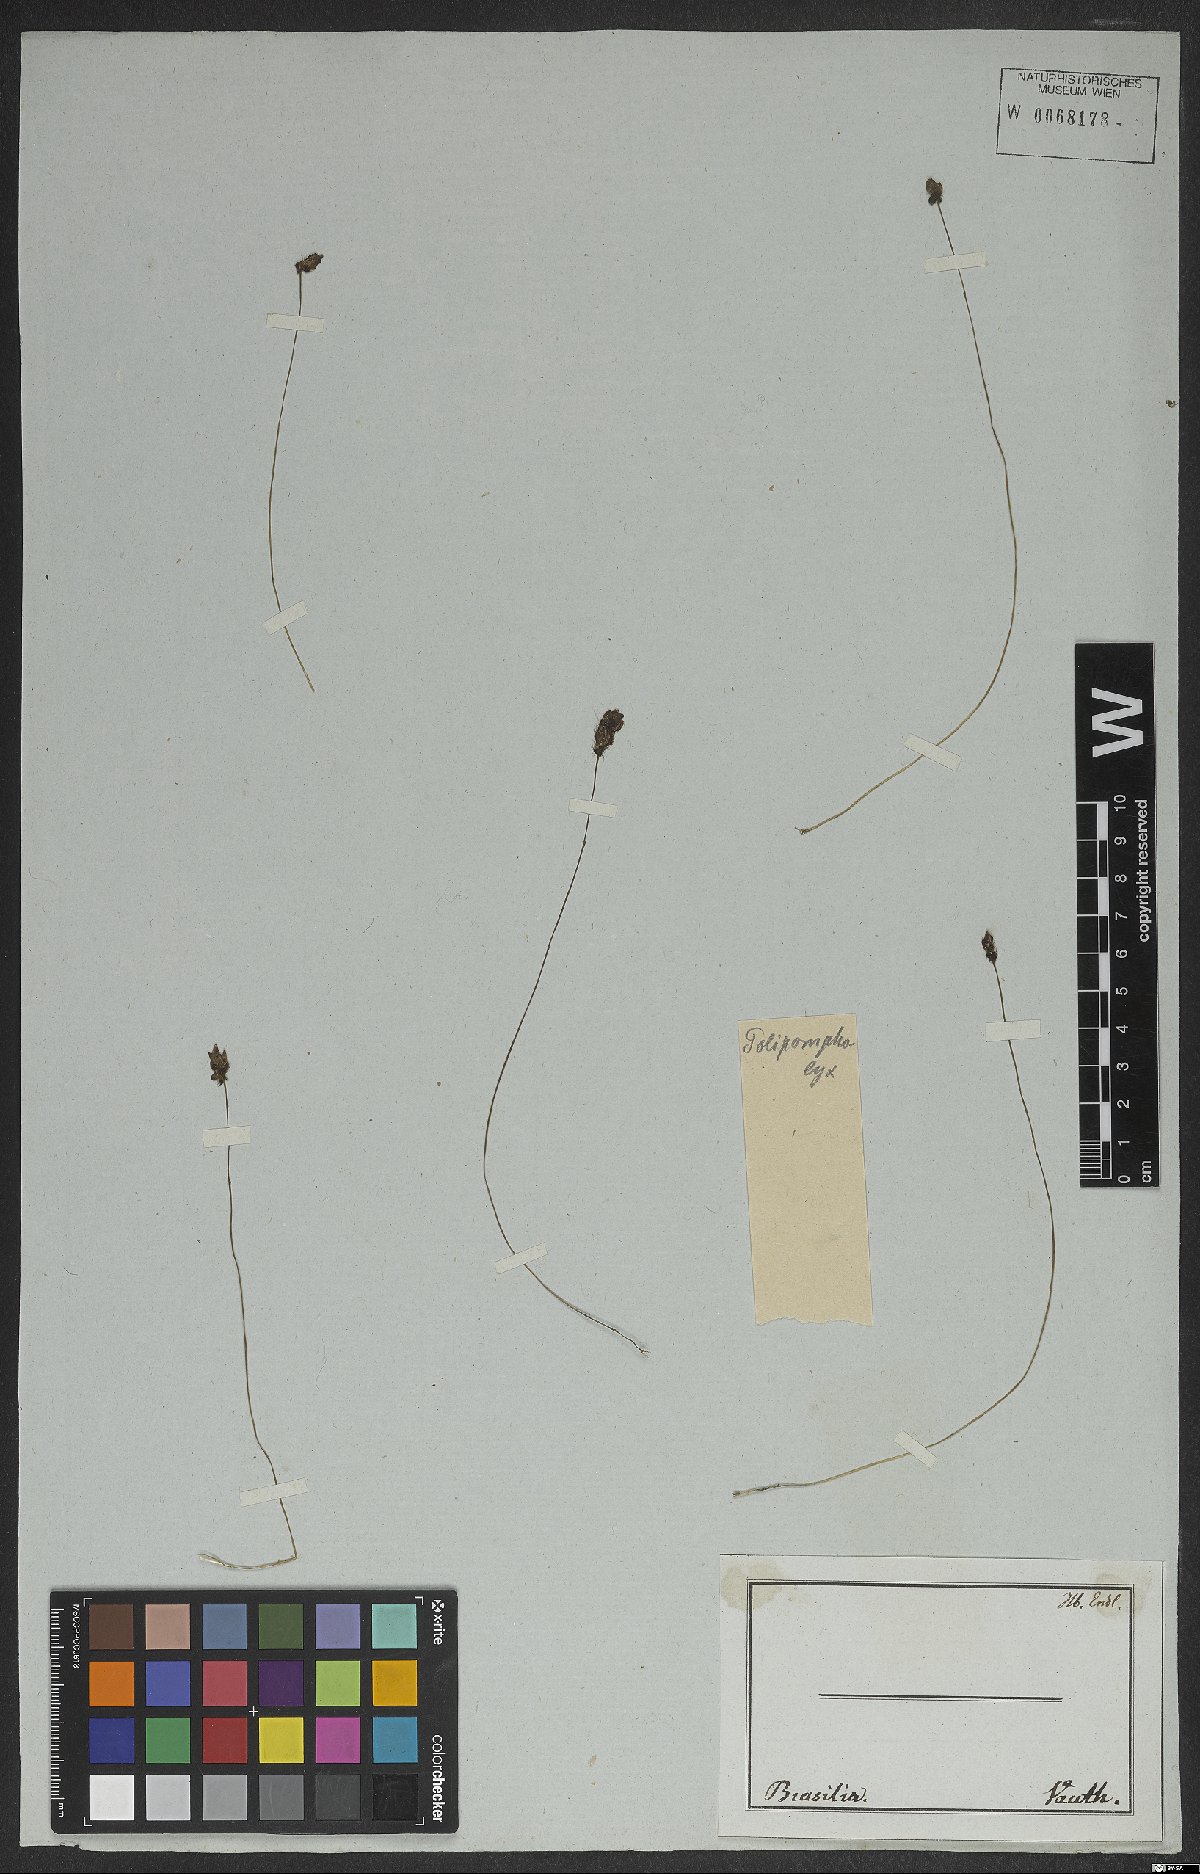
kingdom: Plantae
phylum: Tracheophyta
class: Magnoliopsida
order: Lamiales
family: Lentibulariaceae
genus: Utricularia
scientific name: Utricularia
